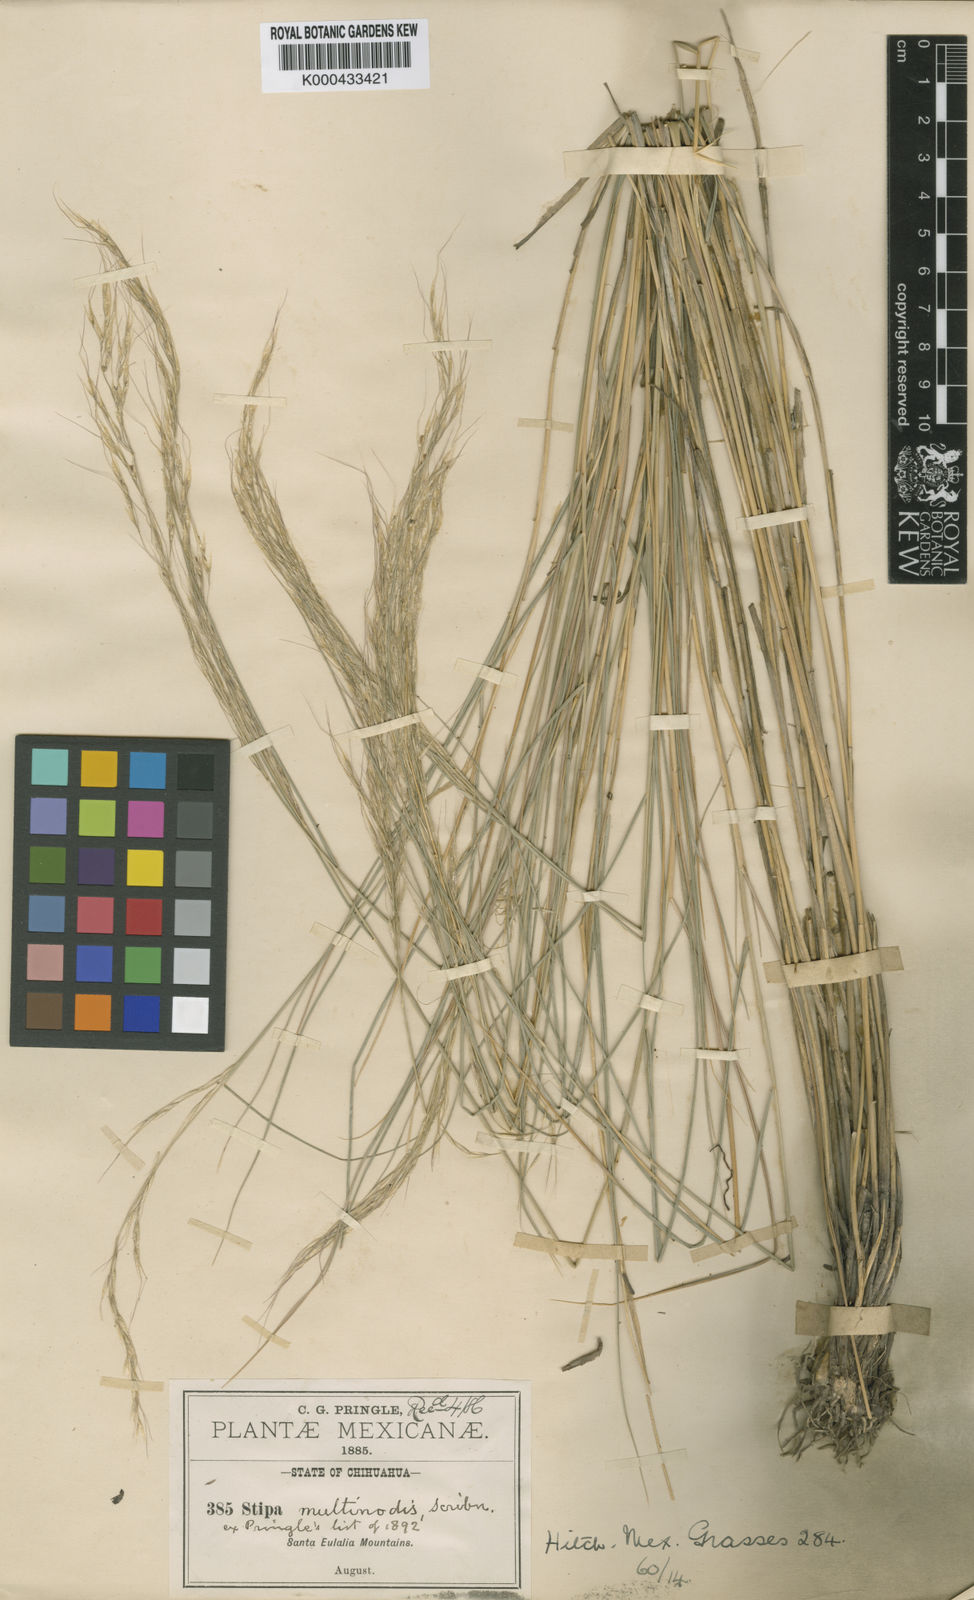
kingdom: Plantae
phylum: Tracheophyta
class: Liliopsida
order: Poales
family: Poaceae
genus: Pseudoeriocoma
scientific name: Pseudoeriocoma multinodis
